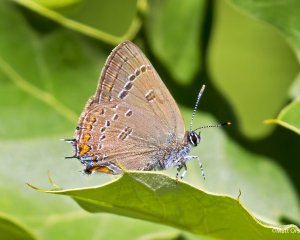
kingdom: Animalia
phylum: Arthropoda
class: Insecta
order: Lepidoptera
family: Lycaenidae
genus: Satyrium
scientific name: Satyrium edwardsii
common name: Edwards' Hairstreak
